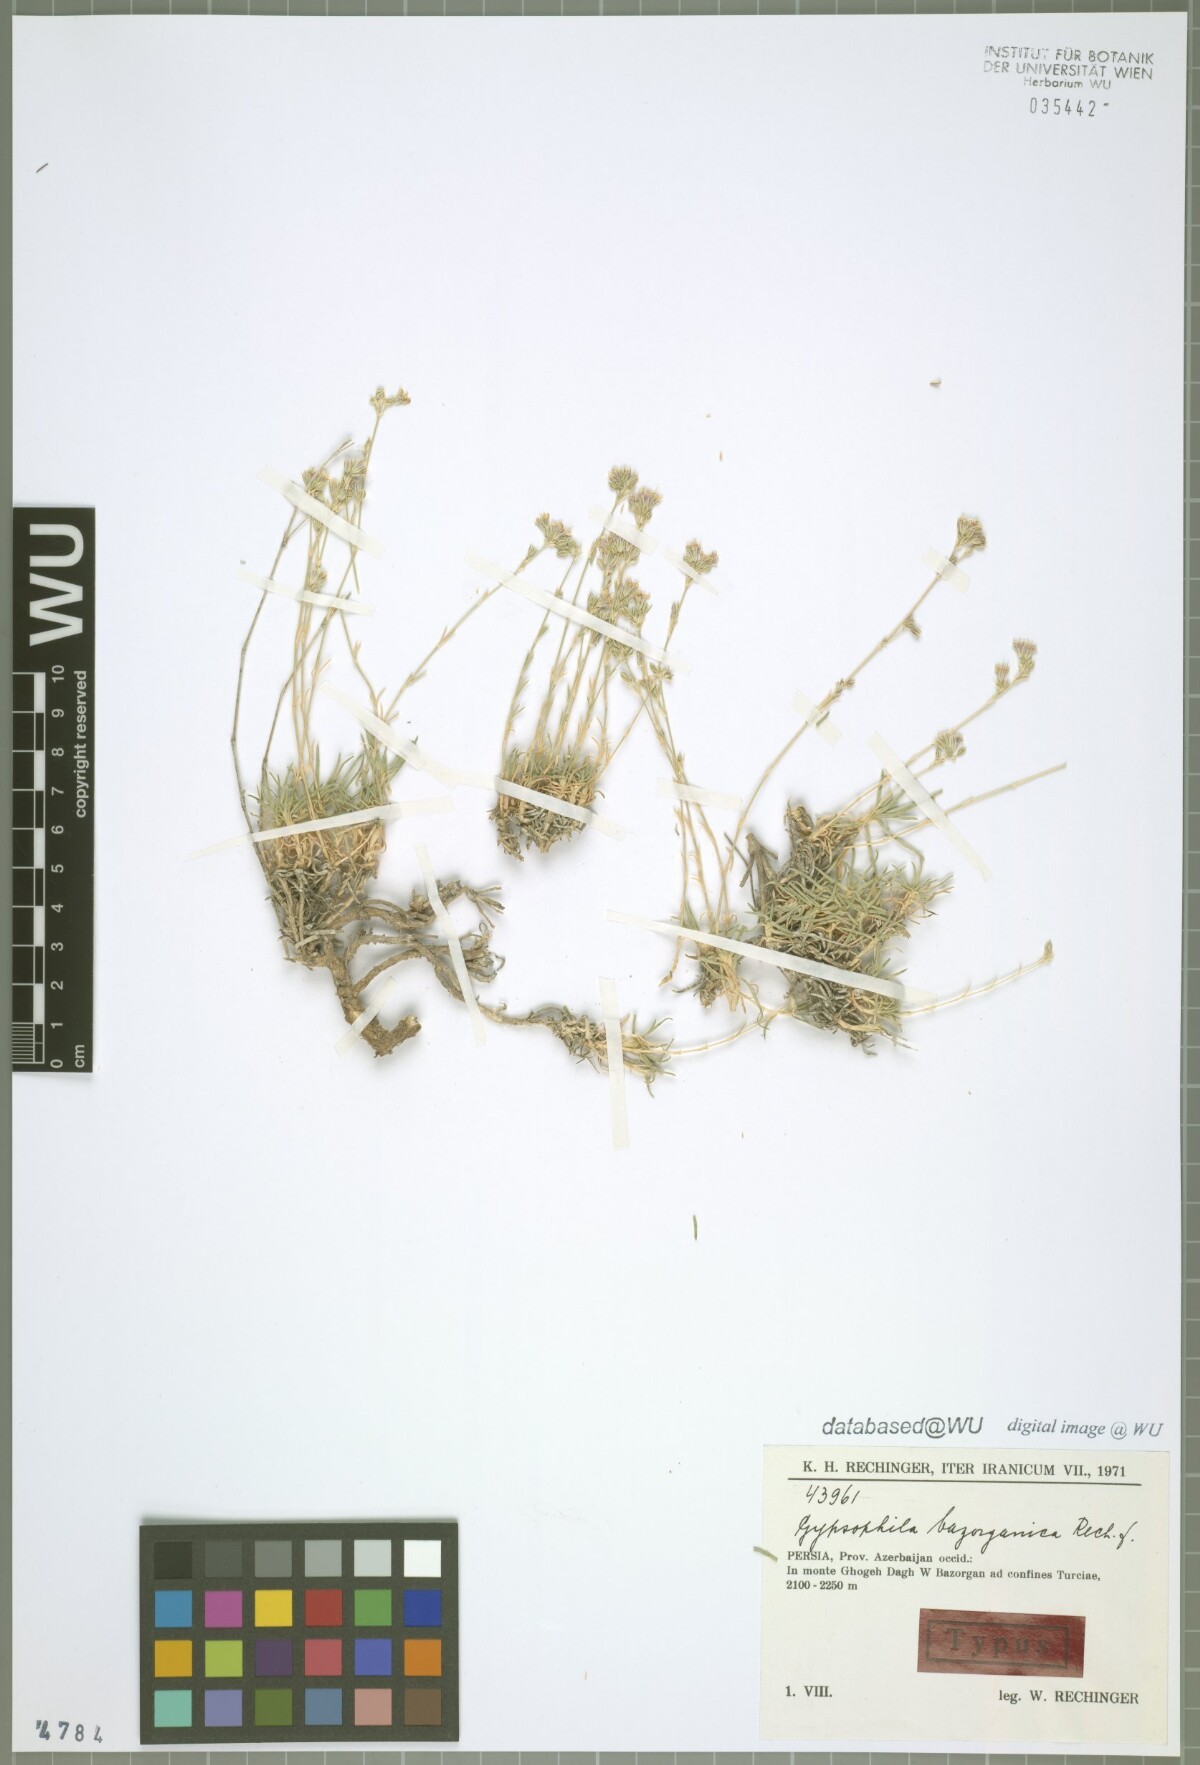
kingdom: Plantae
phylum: Tracheophyta
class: Magnoliopsida
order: Caryophyllales
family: Caryophyllaceae
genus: Gypsophila
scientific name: Gypsophila bazorganica
